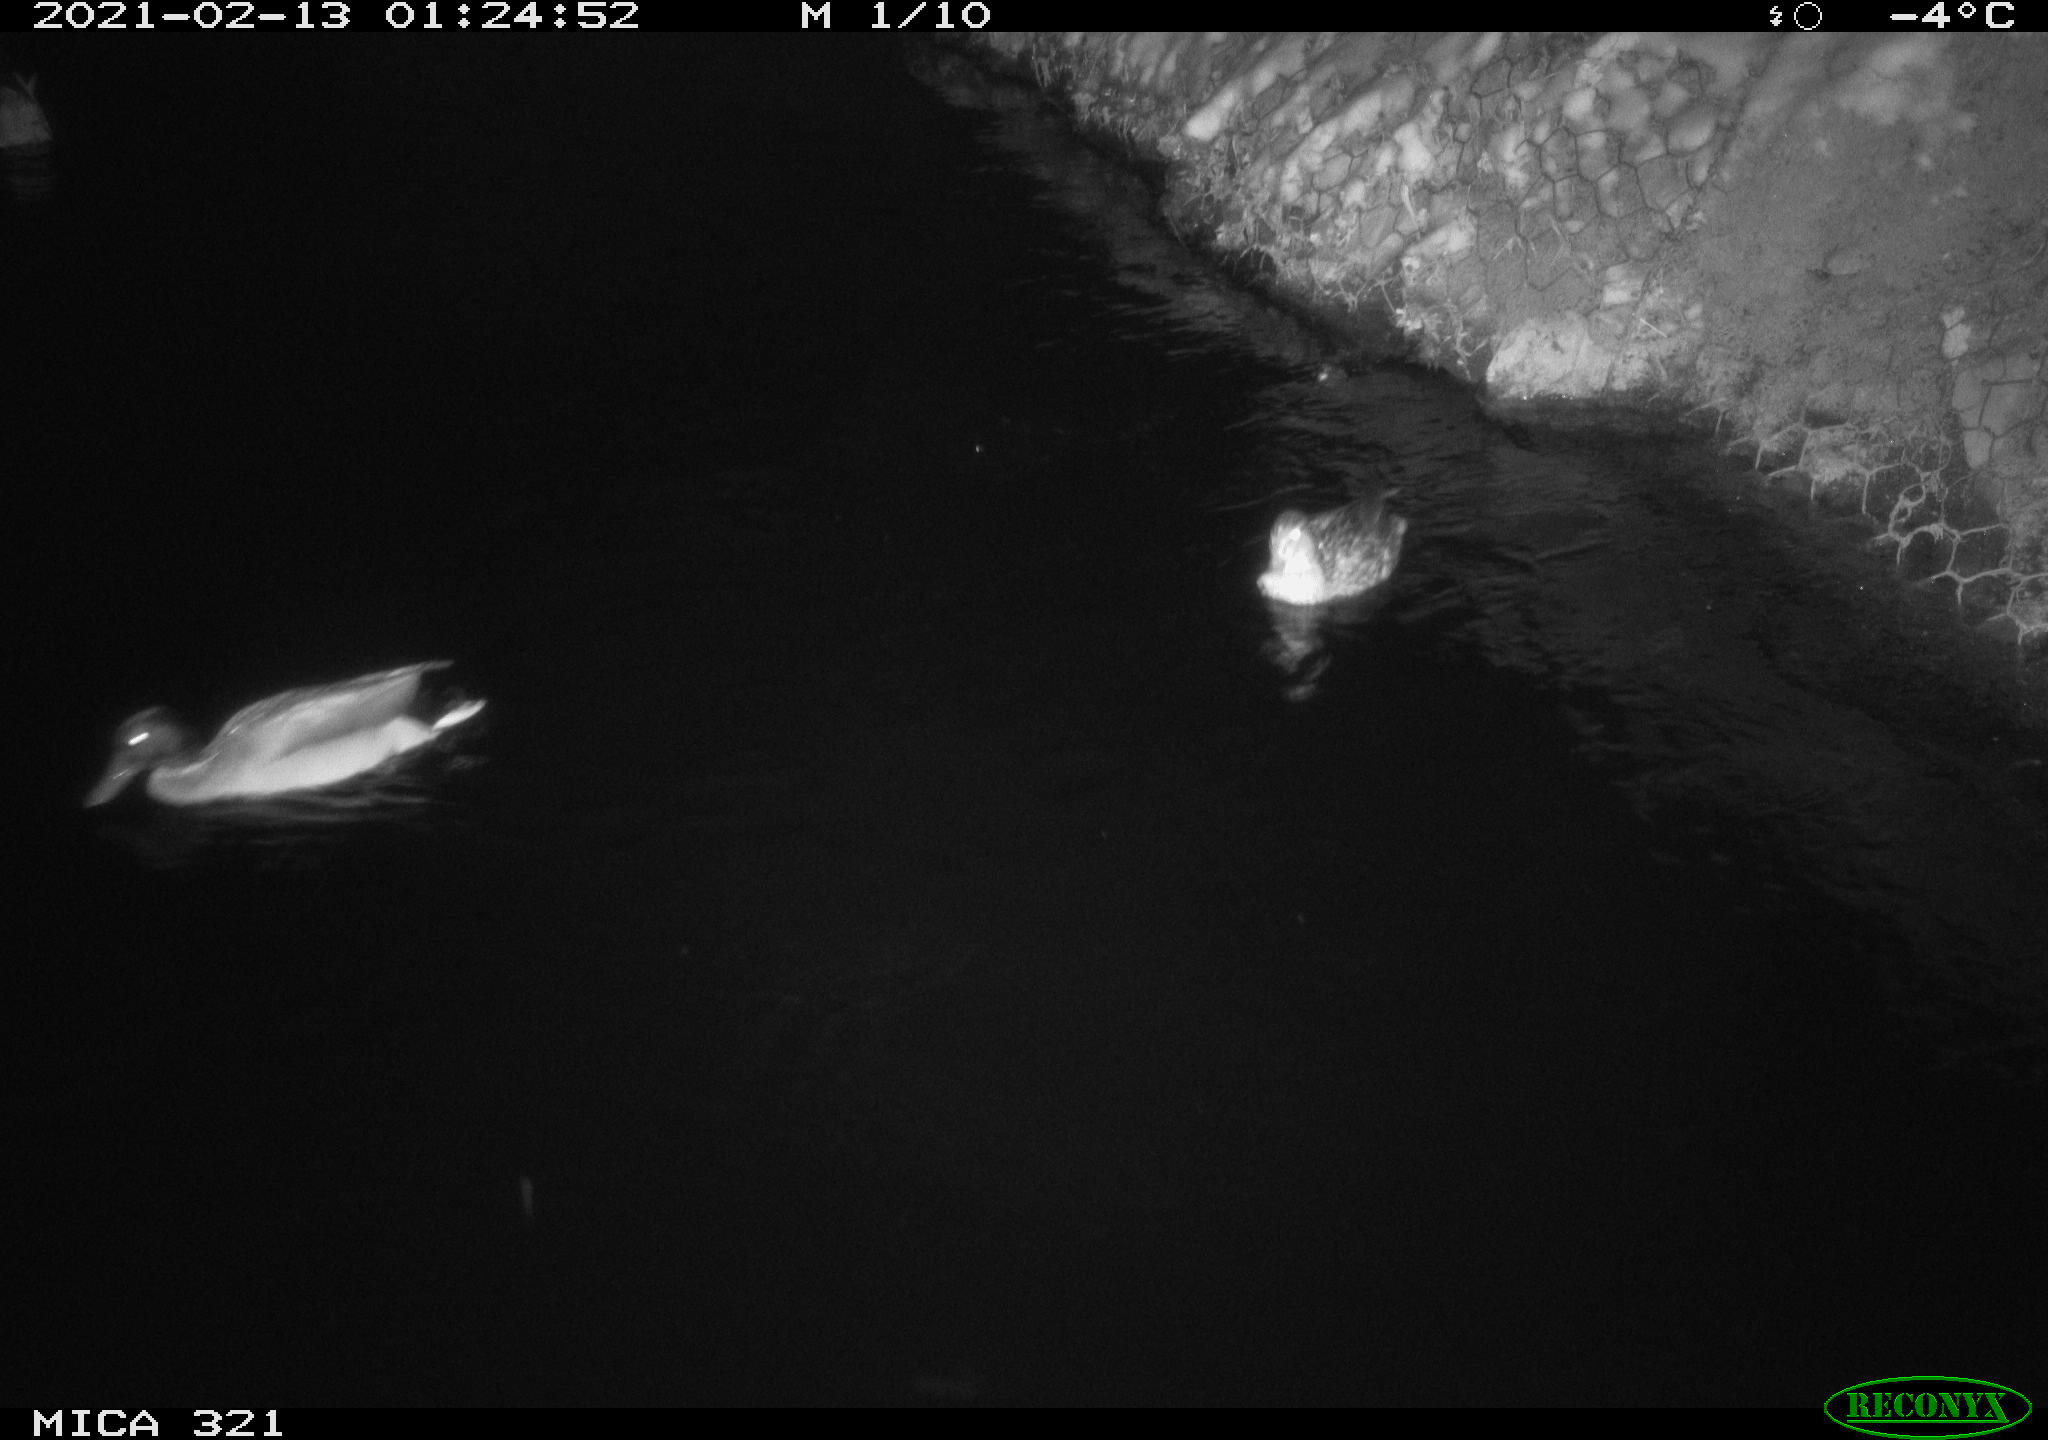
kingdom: Animalia
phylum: Chordata
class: Aves
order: Anseriformes
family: Anatidae
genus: Anas
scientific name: Anas platyrhynchos
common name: Mallard
